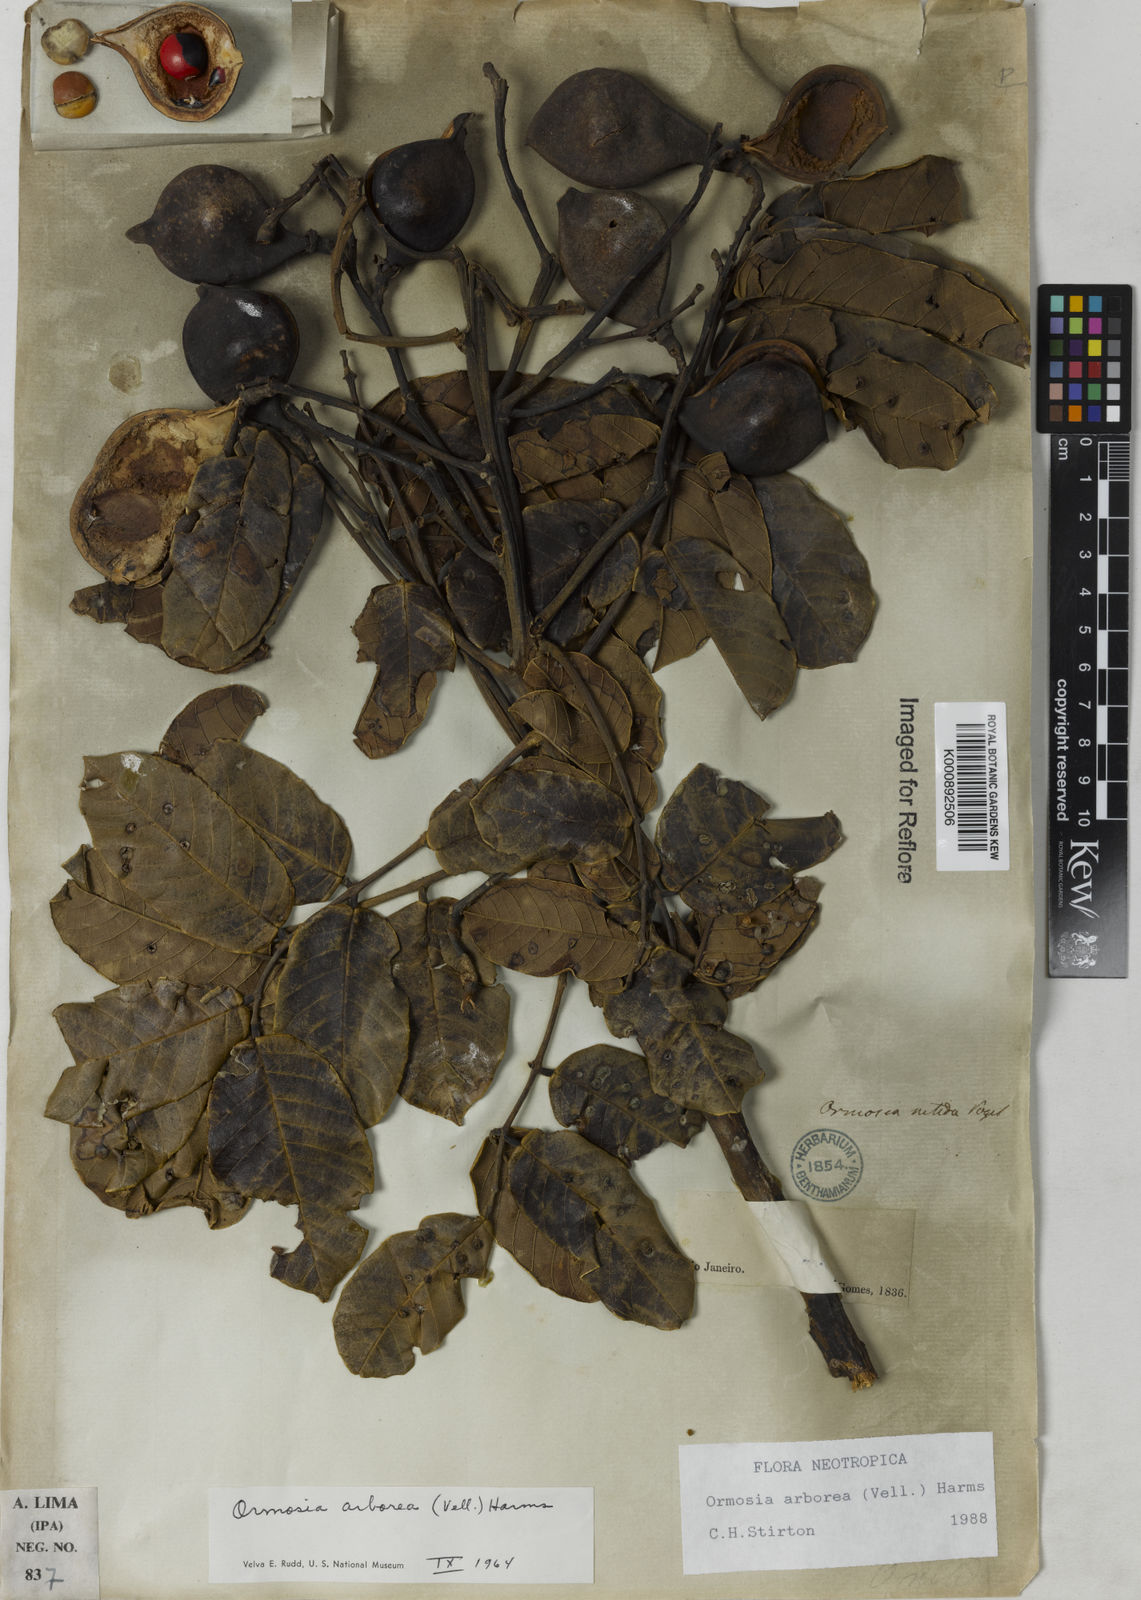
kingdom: Plantae
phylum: Tracheophyta
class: Magnoliopsida
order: Fabales
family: Fabaceae
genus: Ormosia
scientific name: Ormosia arborea
